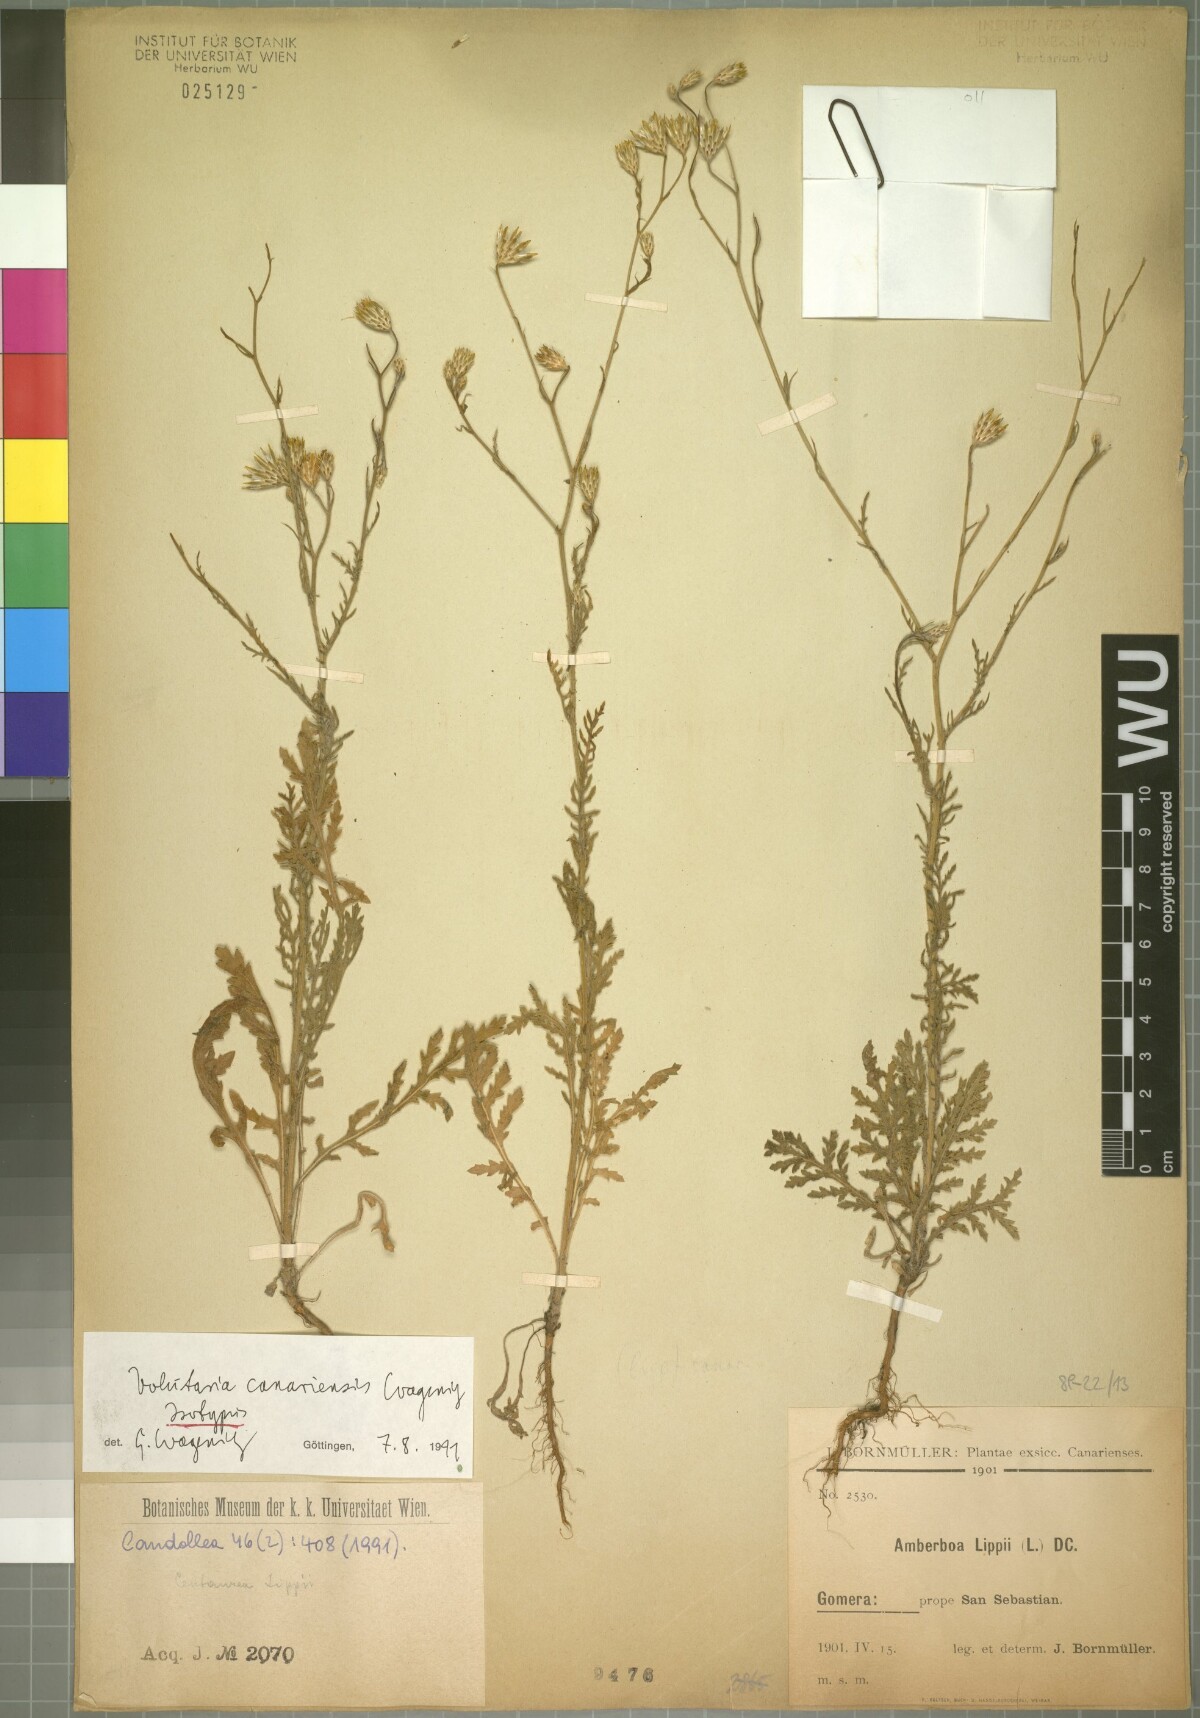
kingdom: Plantae
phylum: Tracheophyta
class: Magnoliopsida
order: Asterales
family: Asteraceae
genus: Volutaria
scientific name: Volutaria canariensis
